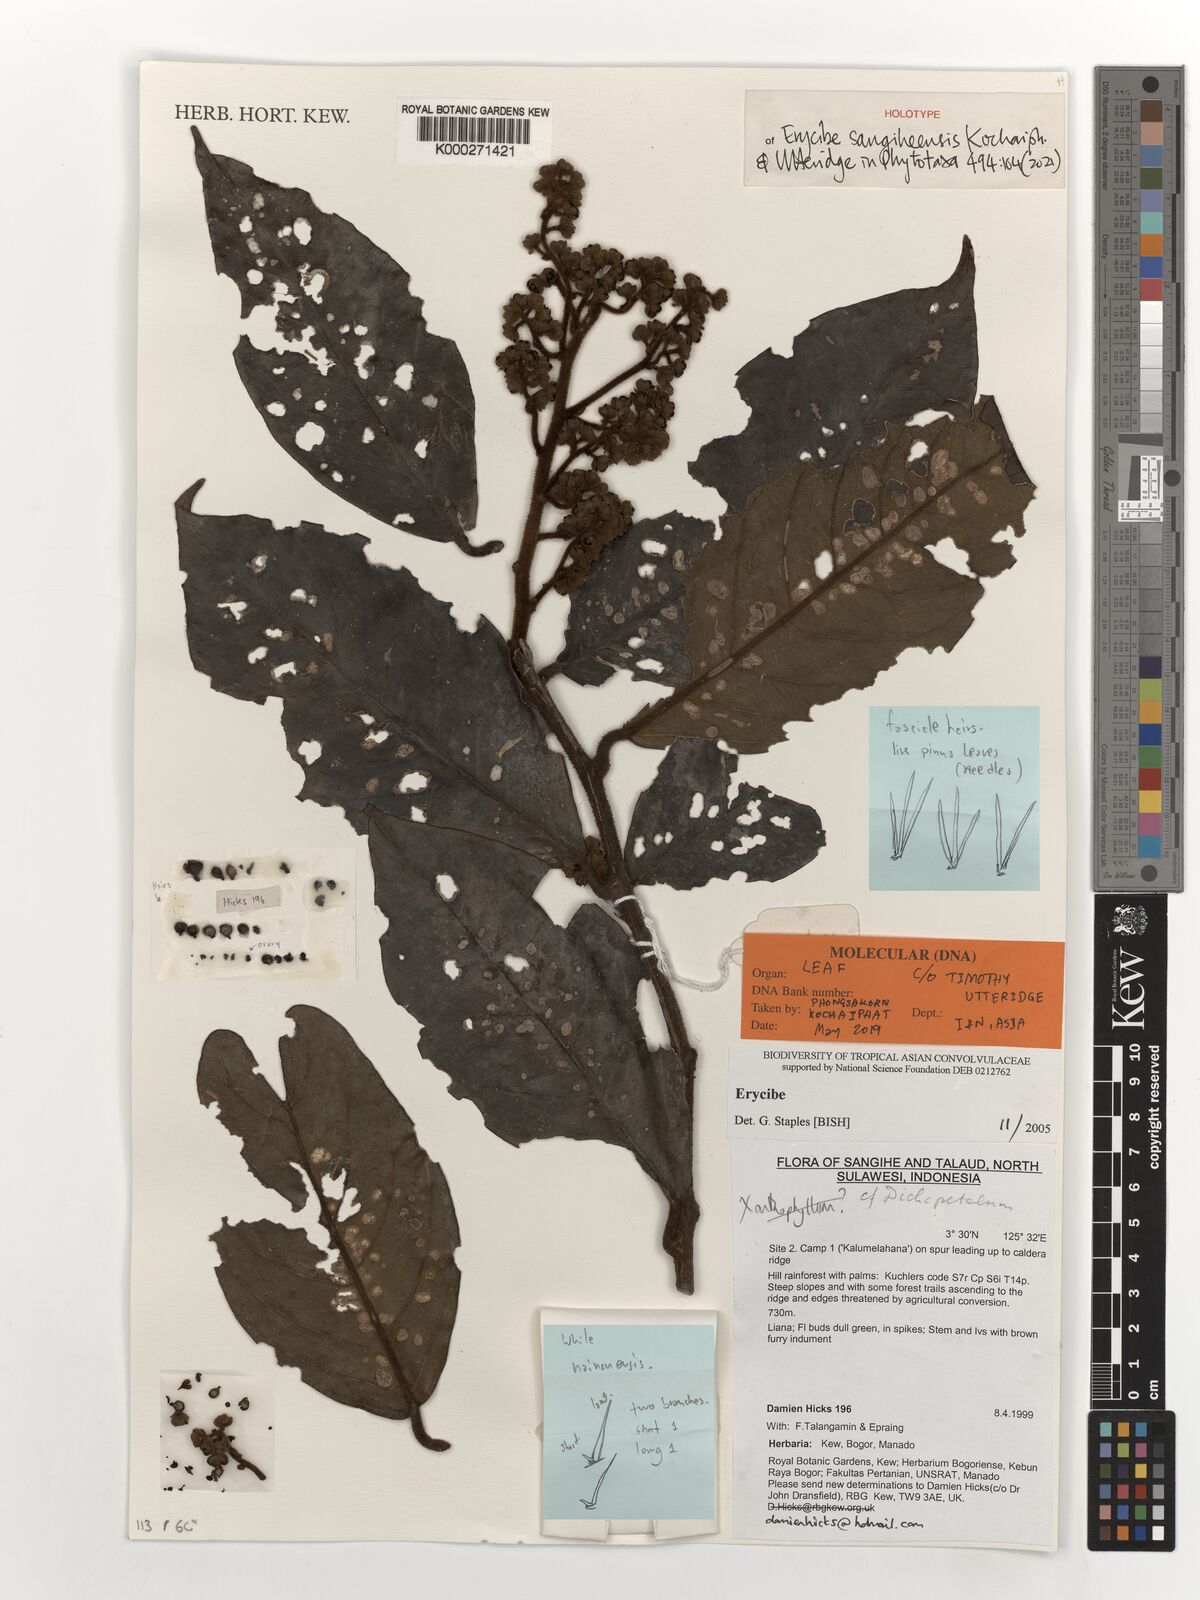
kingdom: Plantae
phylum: Tracheophyta
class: Magnoliopsida
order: Solanales
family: Convolvulaceae
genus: Erycibe
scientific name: Erycibe
